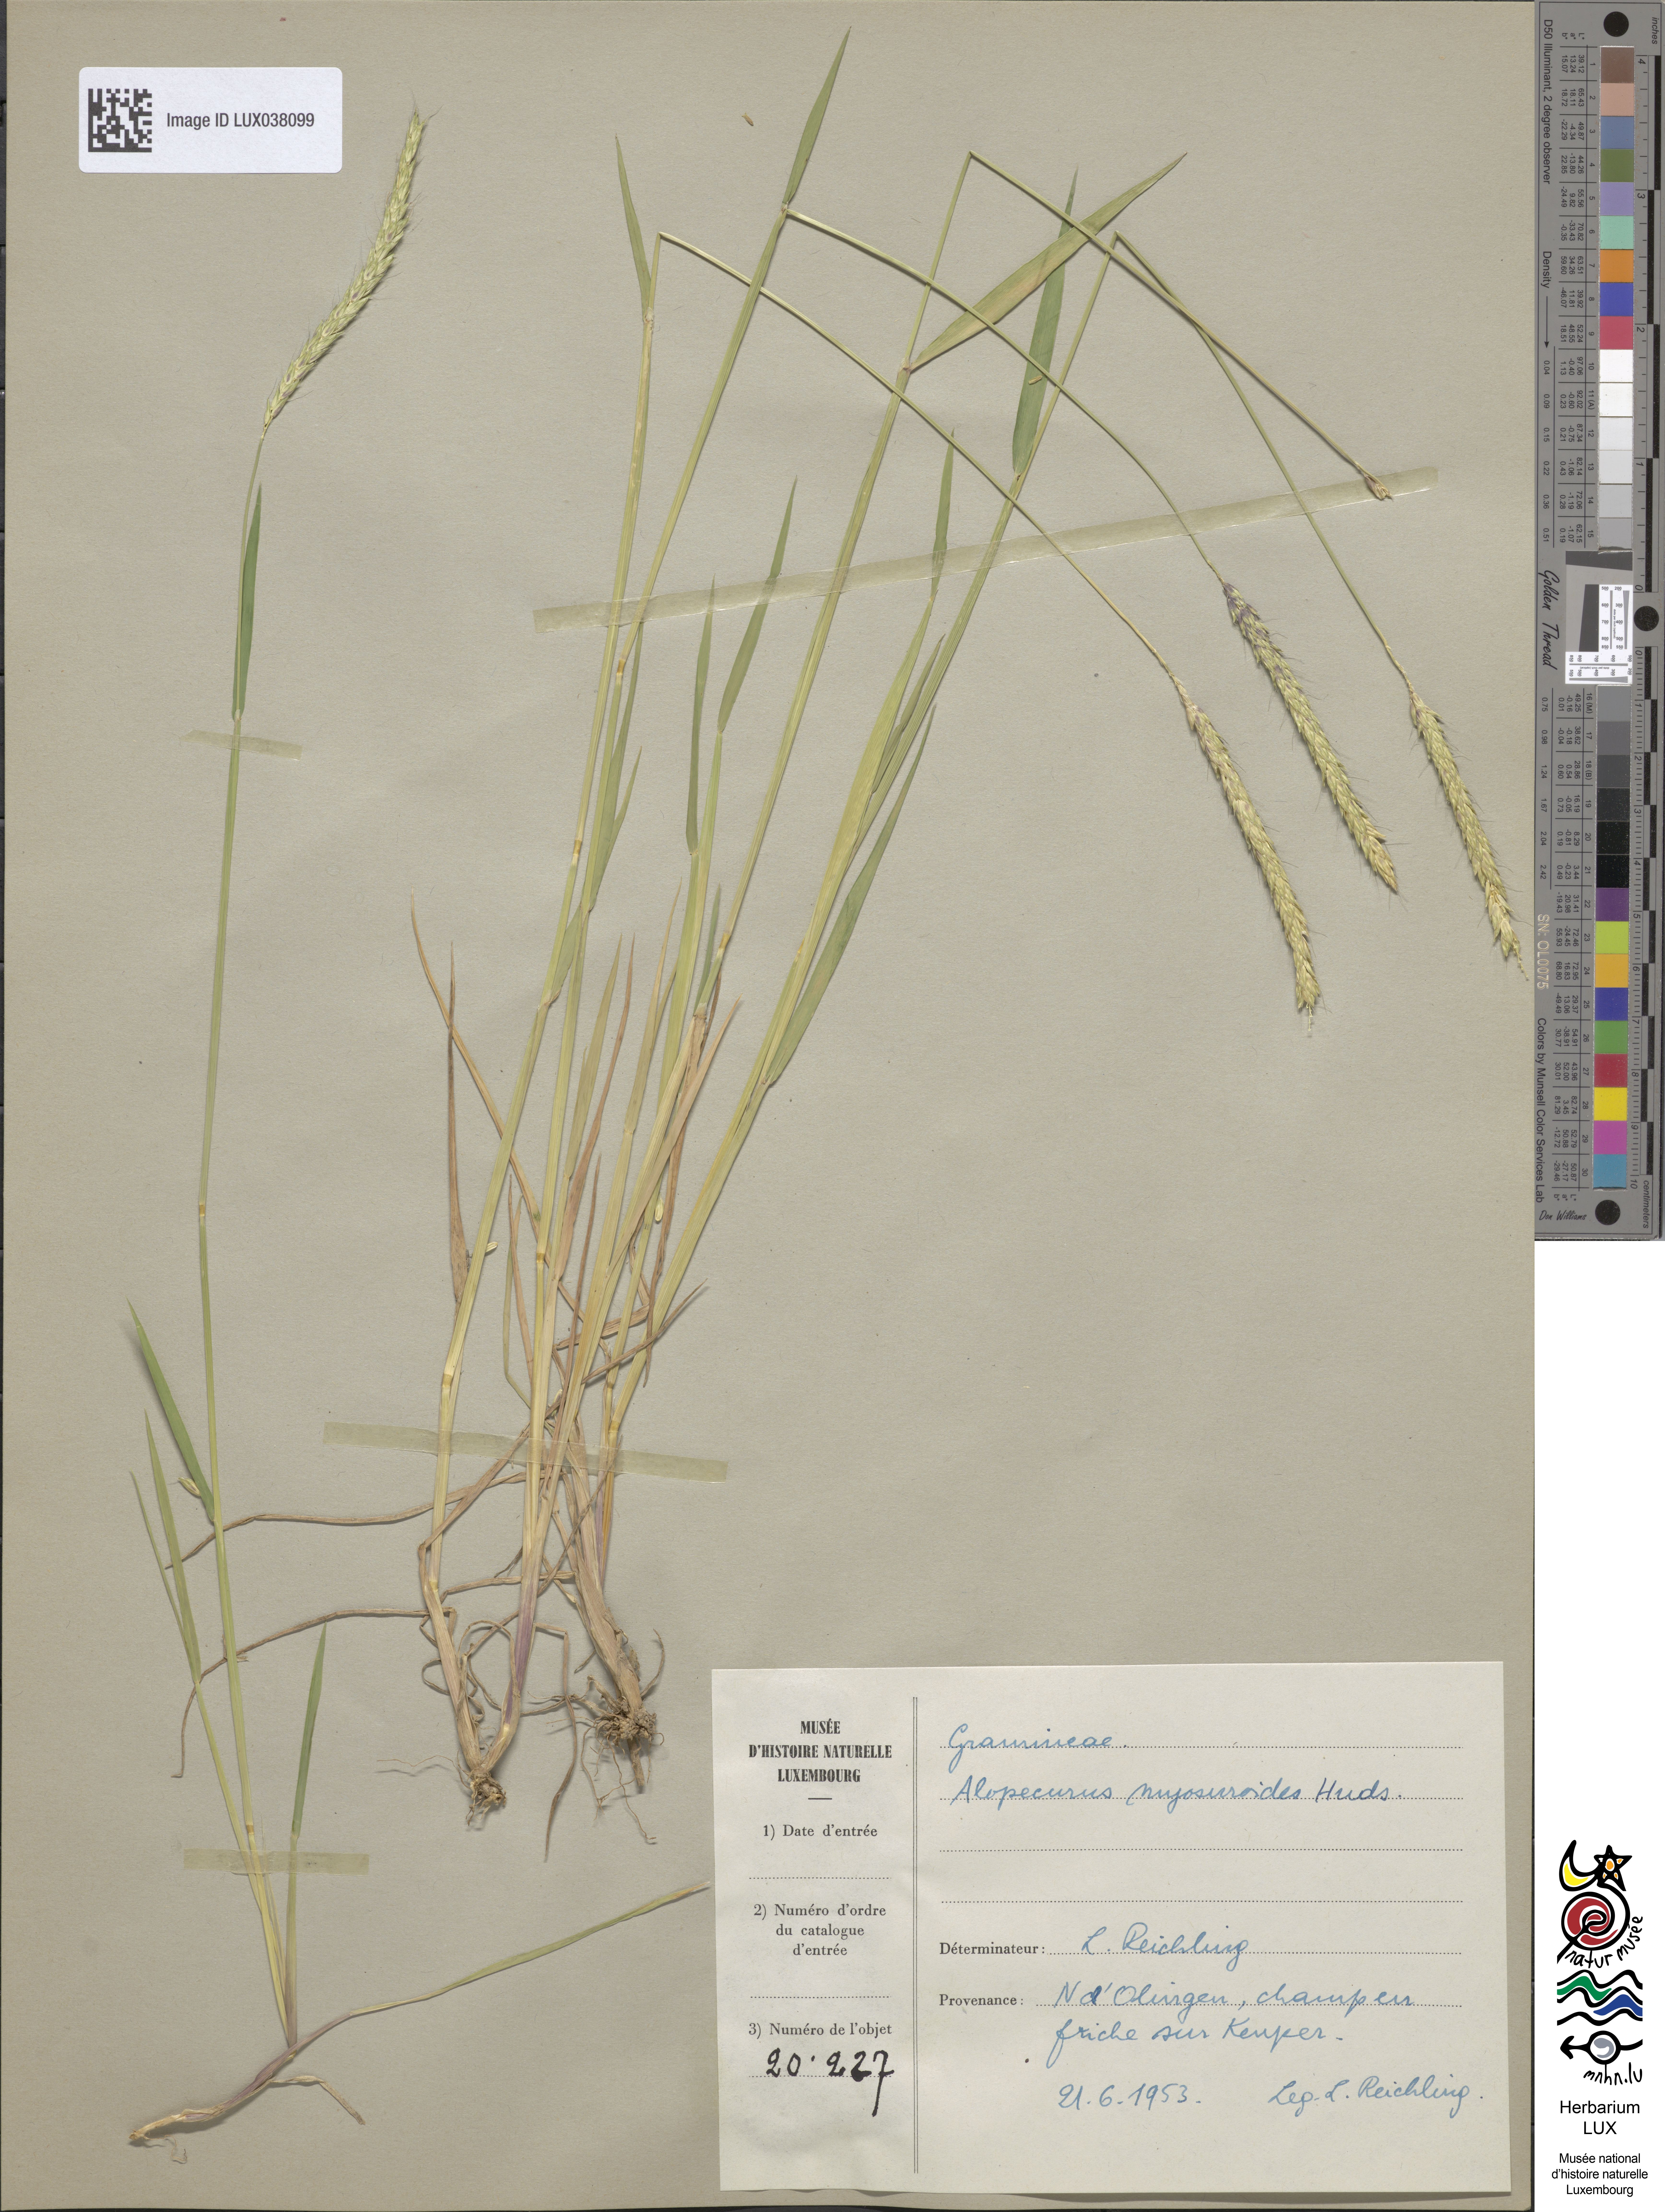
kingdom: Plantae
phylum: Tracheophyta
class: Liliopsida
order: Poales
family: Poaceae
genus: Alopecurus
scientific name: Alopecurus myosuroides
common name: Black-grass
